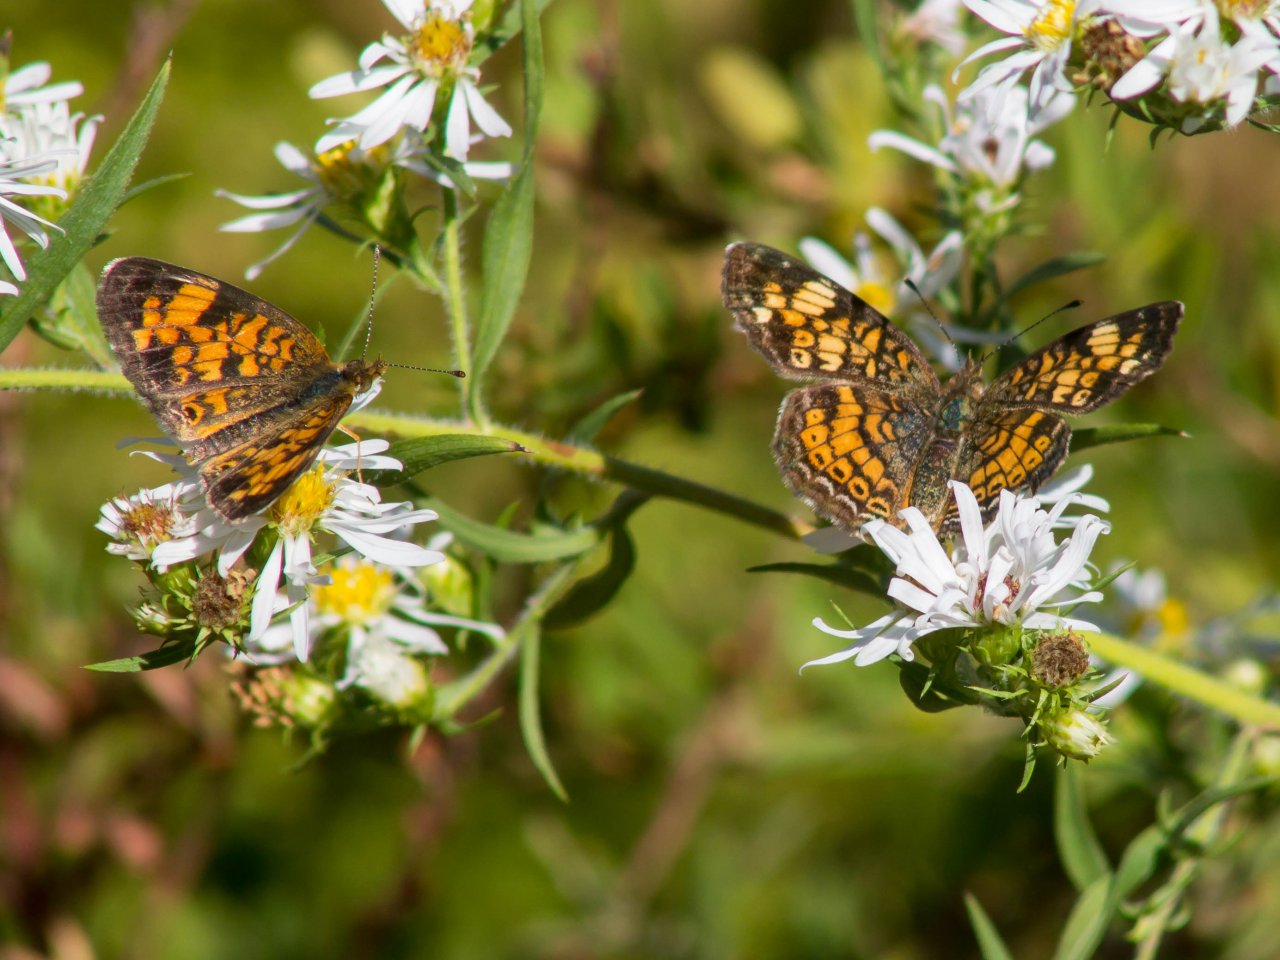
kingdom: Animalia
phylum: Arthropoda
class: Insecta
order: Lepidoptera
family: Nymphalidae
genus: Phyciodes
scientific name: Phyciodes tharos
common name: Pearl Crescent
